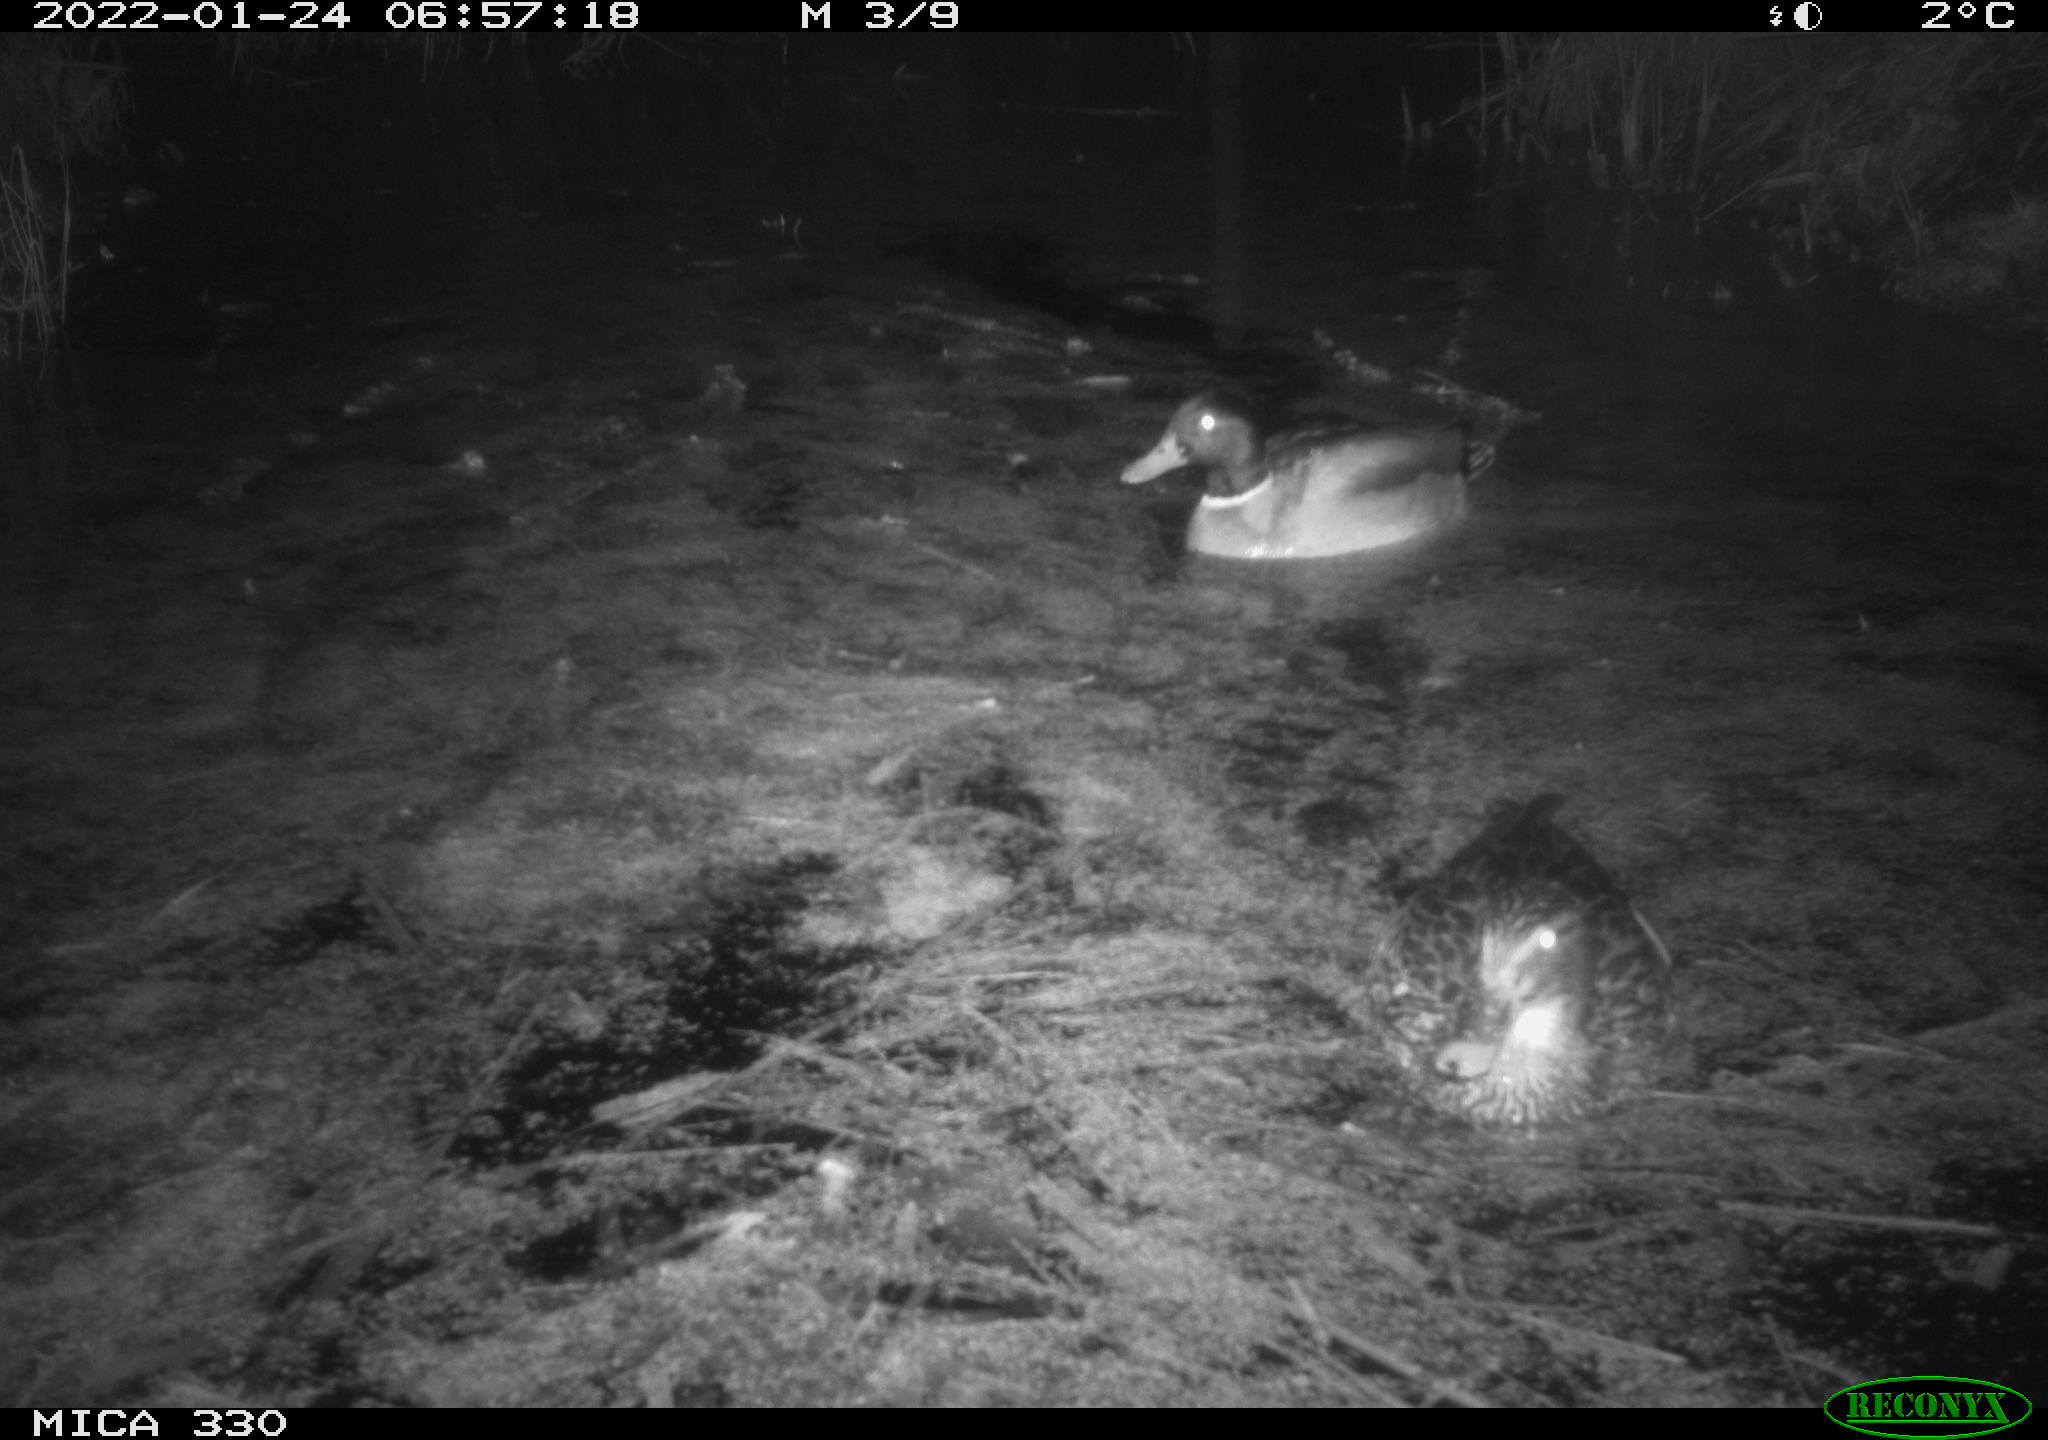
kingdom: Animalia
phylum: Chordata
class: Aves
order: Anseriformes
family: Anatidae
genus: Anas
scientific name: Anas platyrhynchos
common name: Mallard
